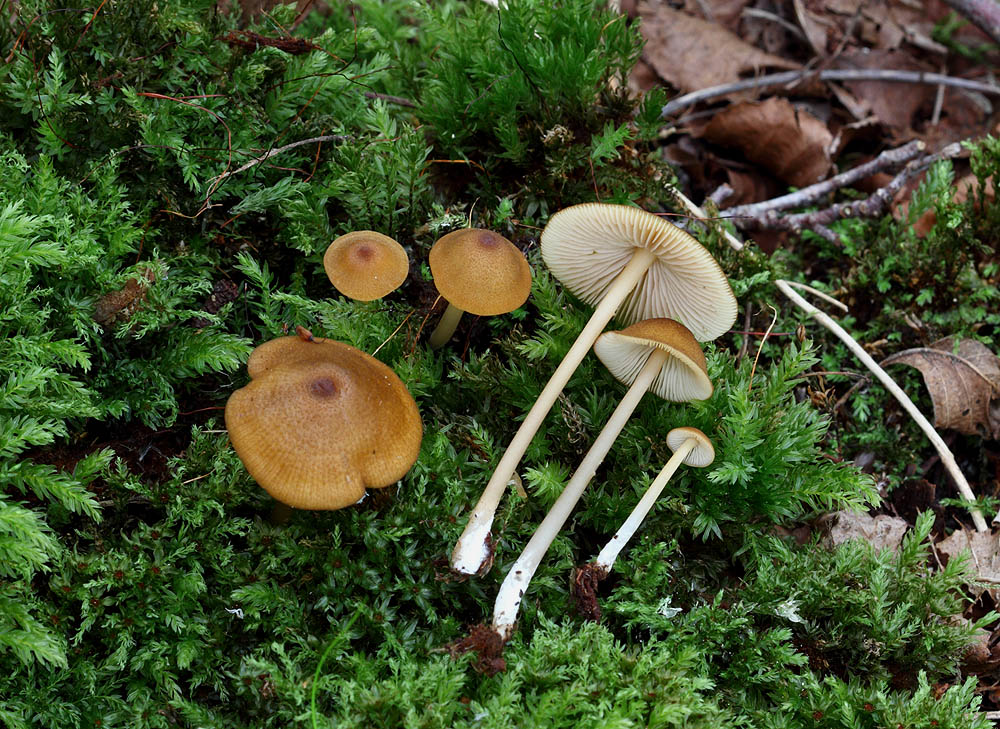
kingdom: Fungi
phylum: Basidiomycota
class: Agaricomycetes
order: Agaricales
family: Entolomataceae
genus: Entoloma
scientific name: Entoloma formosum
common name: brungul rødblad
